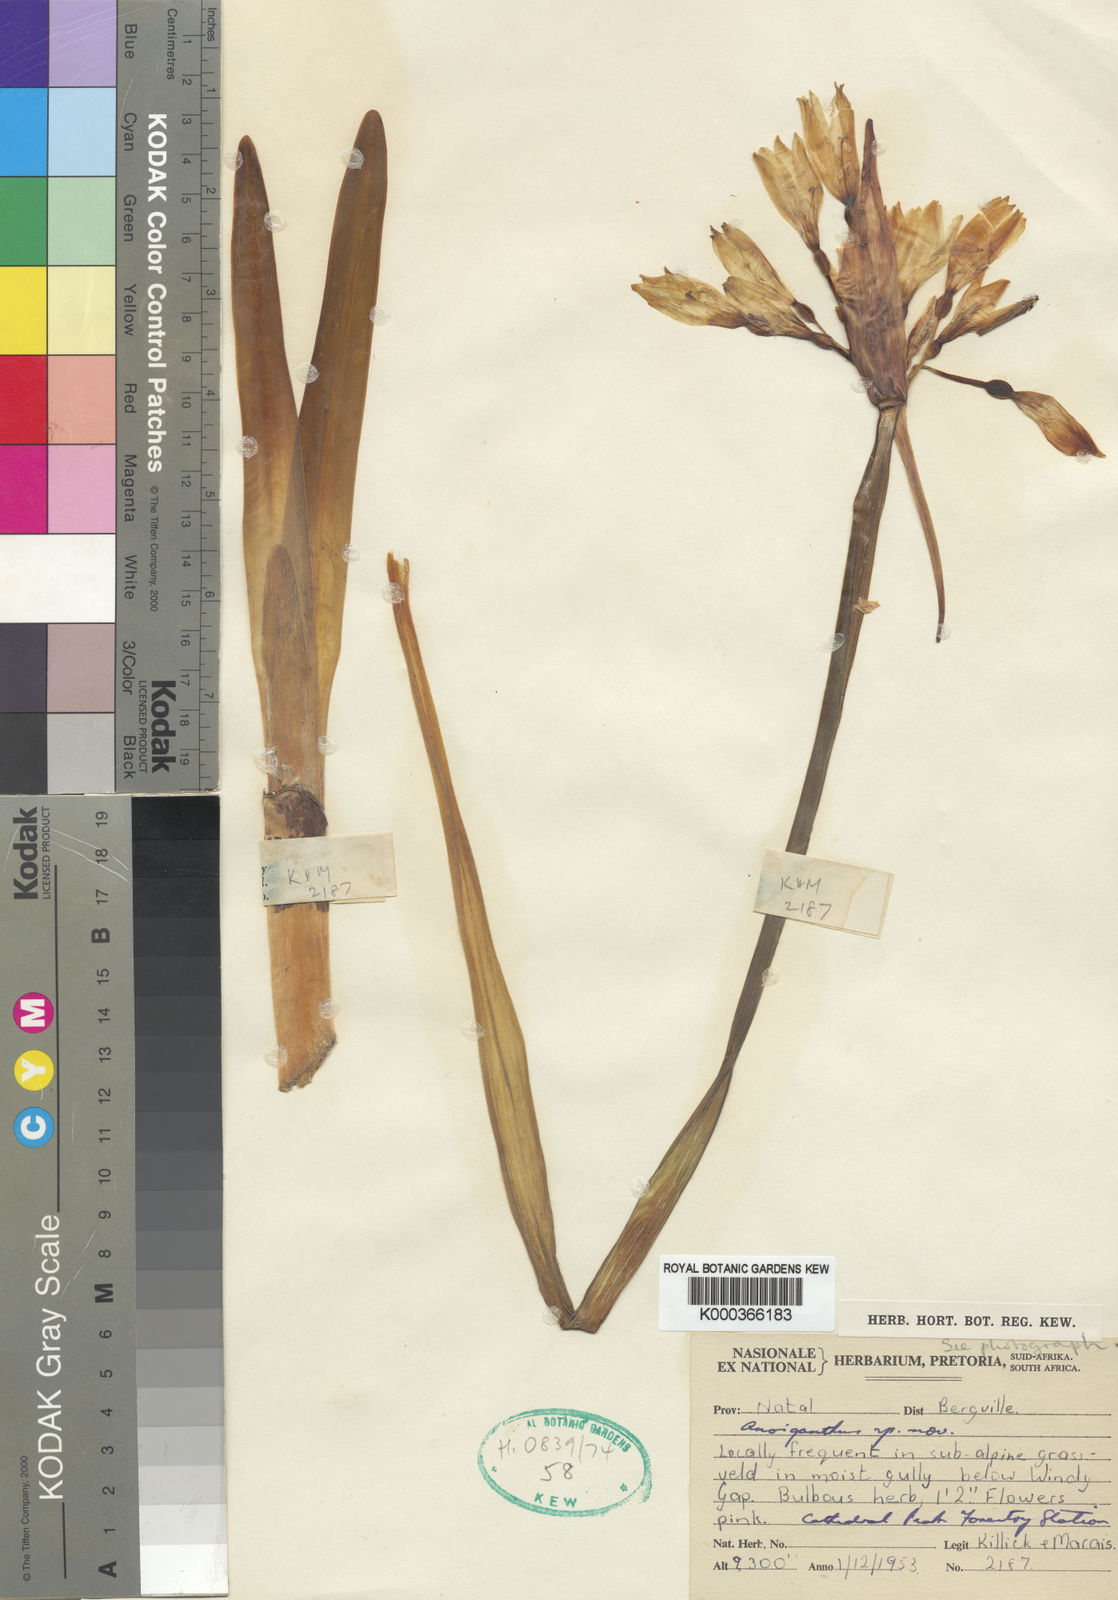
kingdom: Plantae
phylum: Tracheophyta
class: Liliopsida
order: Asparagales
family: Amaryllidaceae
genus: Cyrtanthus
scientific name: Cyrtanthus erubescens
